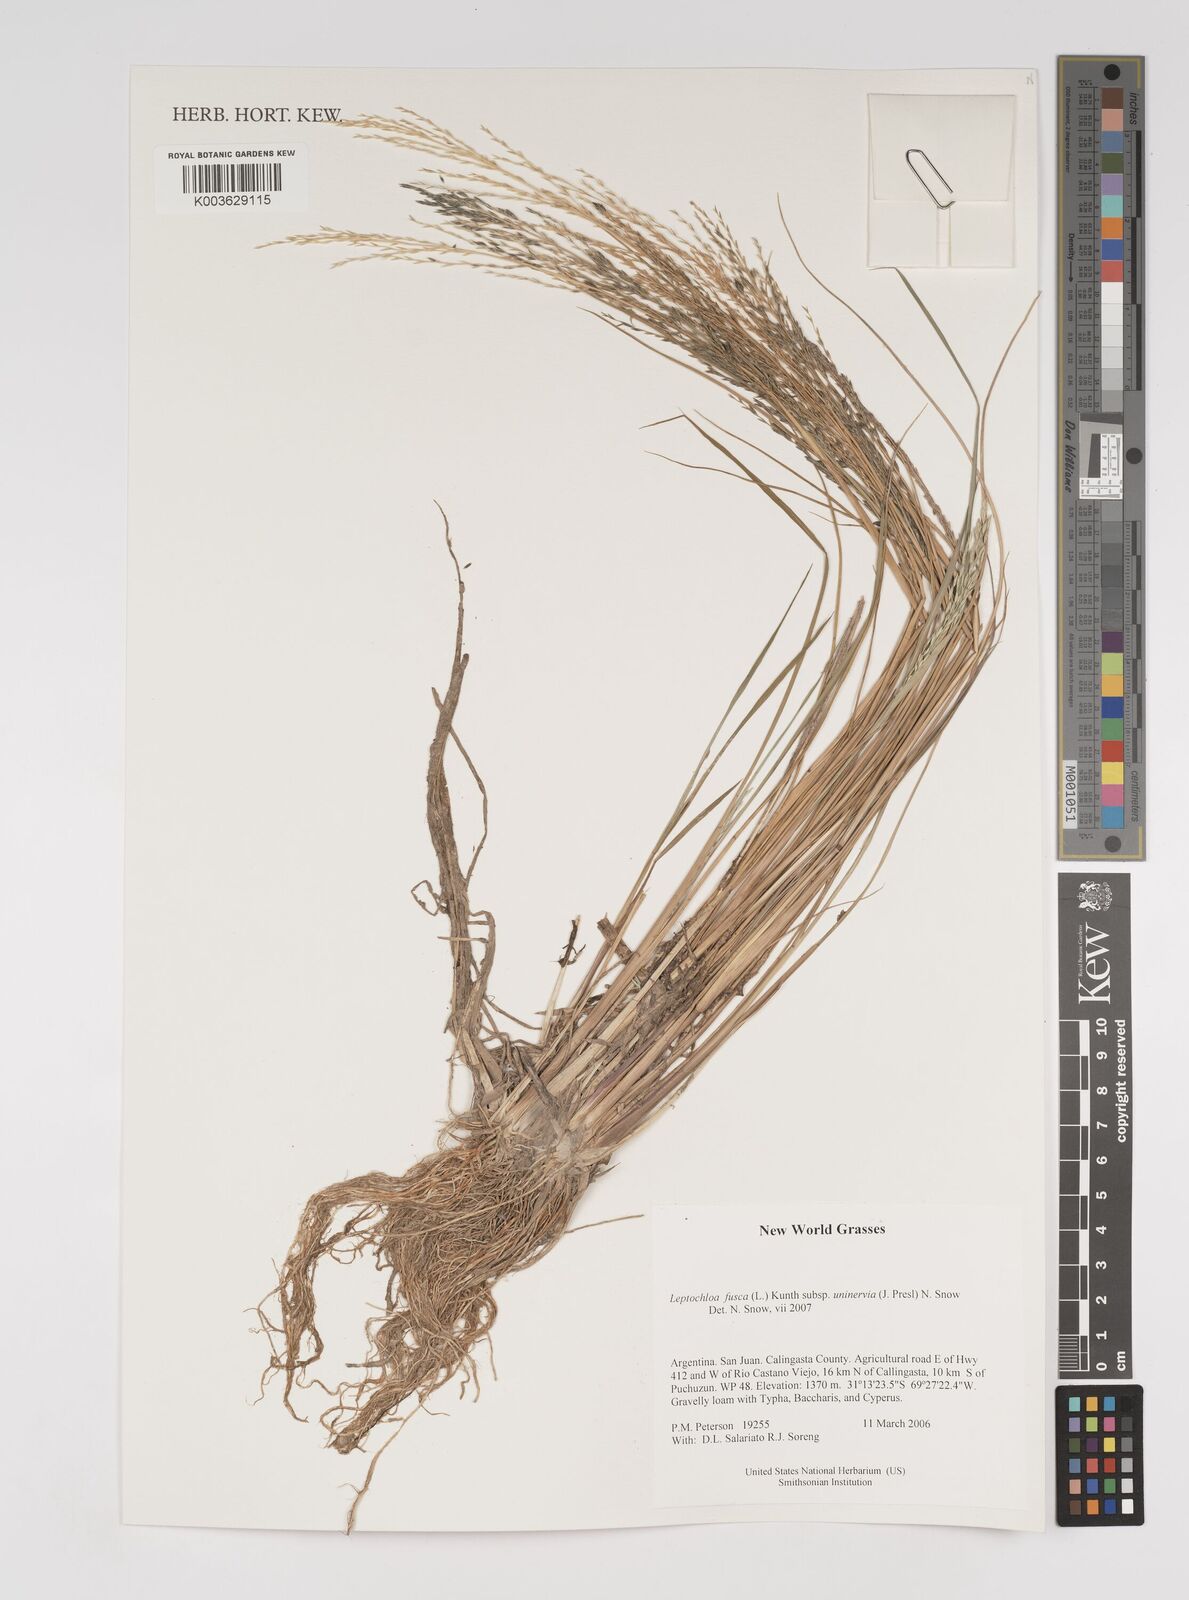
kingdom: Plantae
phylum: Tracheophyta
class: Liliopsida
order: Poales
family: Poaceae
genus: Diplachne
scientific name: Diplachne fusca
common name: Brown beetle grass
